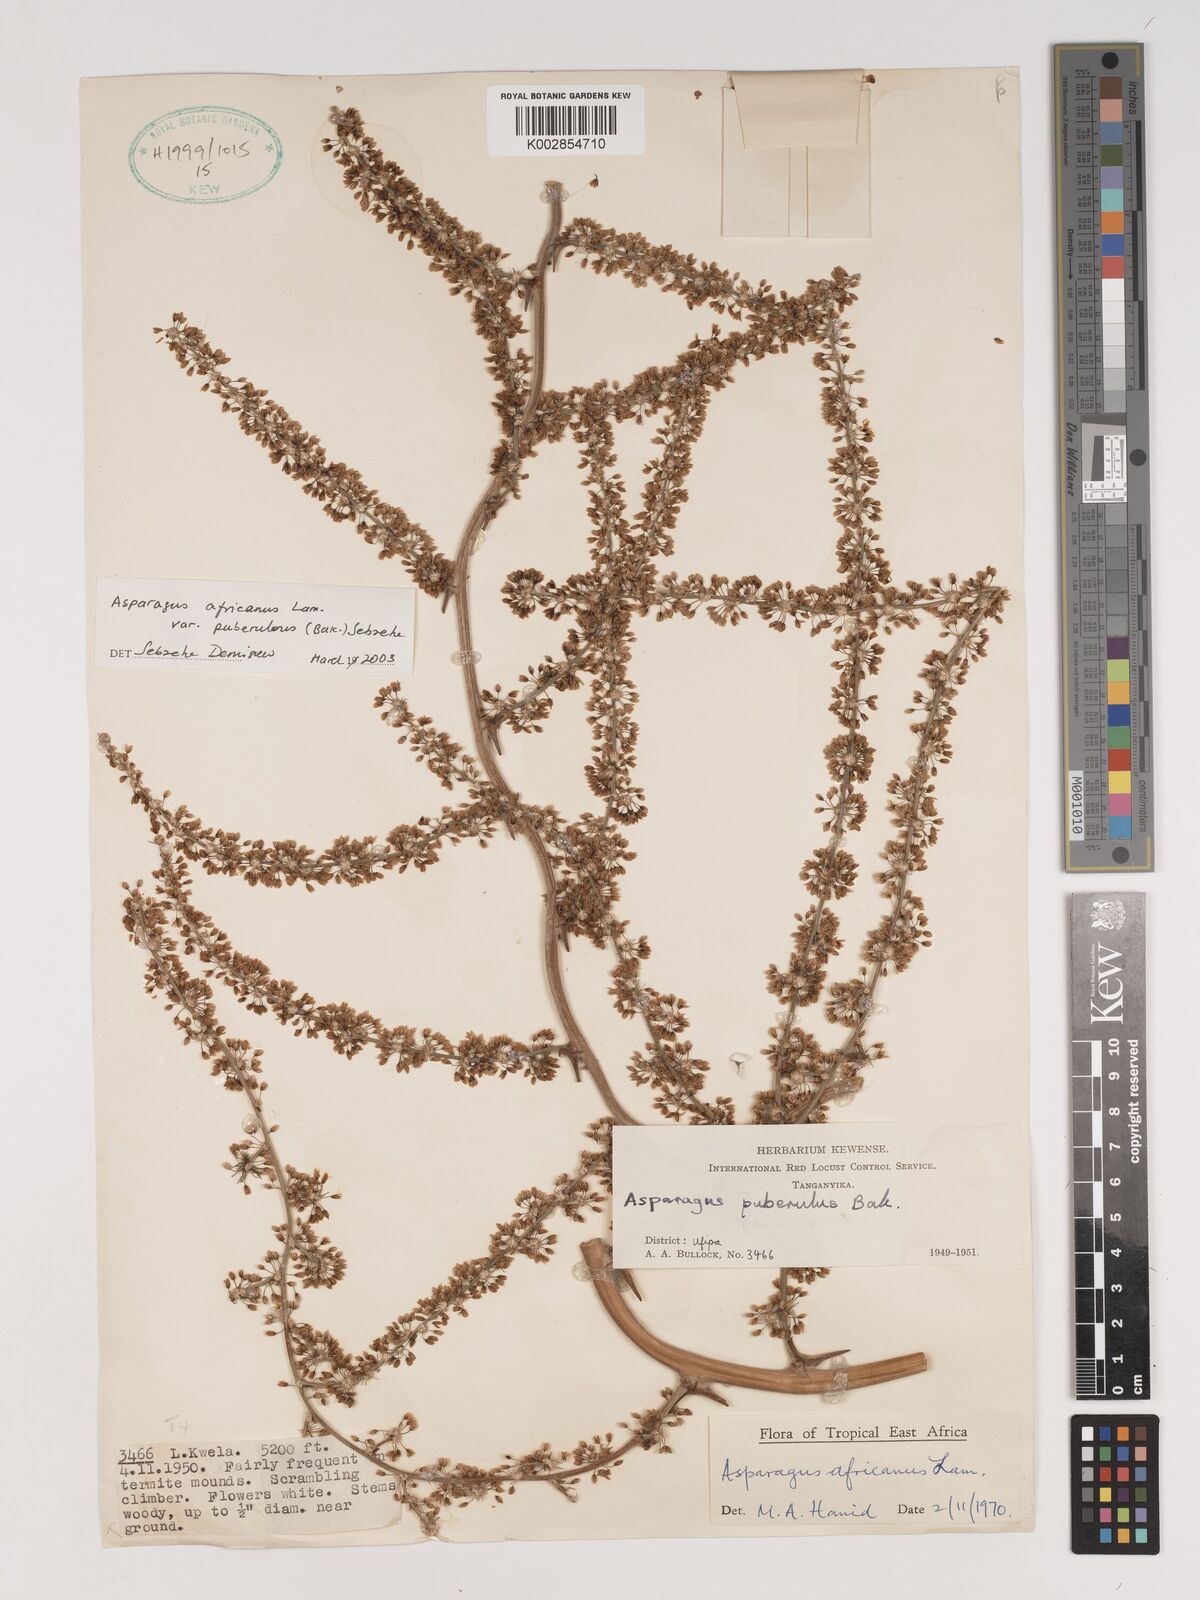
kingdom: Plantae
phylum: Tracheophyta
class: Liliopsida
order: Asparagales
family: Asparagaceae
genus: Asparagus
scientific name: Asparagus africanus
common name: Asparagus-fern
